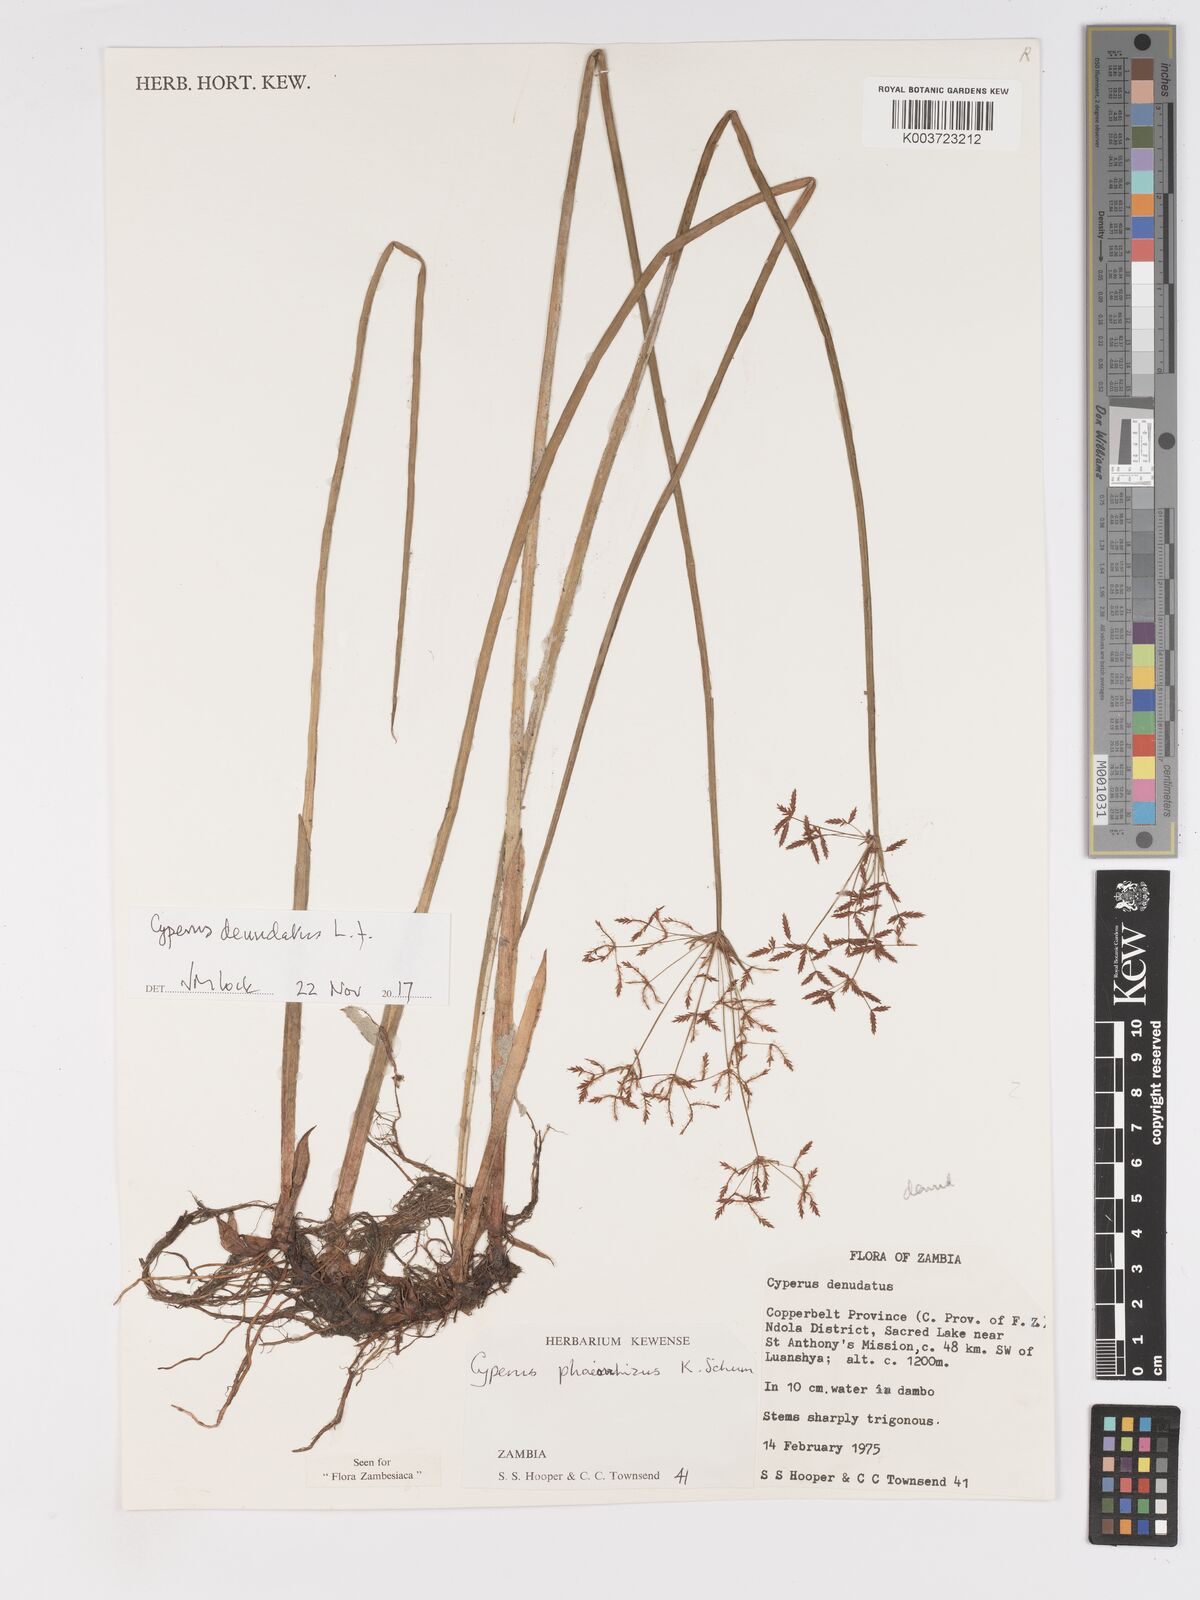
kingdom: Plantae
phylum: Tracheophyta
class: Liliopsida
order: Poales
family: Cyperaceae
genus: Cyperus
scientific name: Cyperus haspan
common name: Haspan flatsedge
